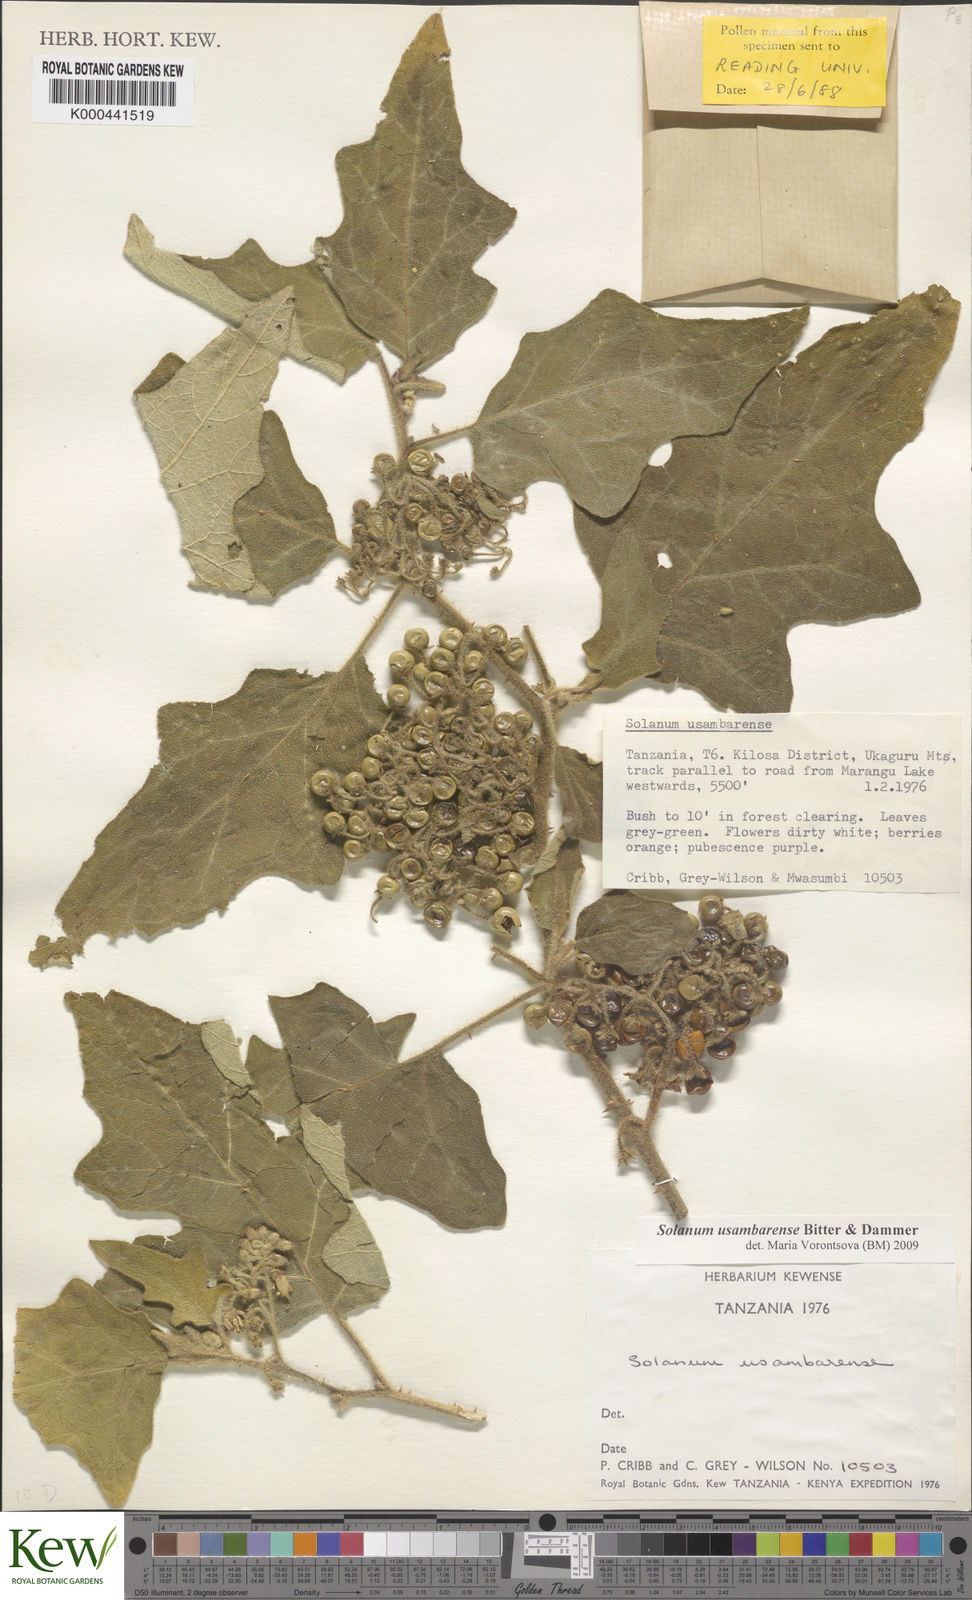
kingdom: Plantae
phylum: Tracheophyta
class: Magnoliopsida
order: Solanales
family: Solanaceae
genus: Solanum
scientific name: Solanum usambarense
